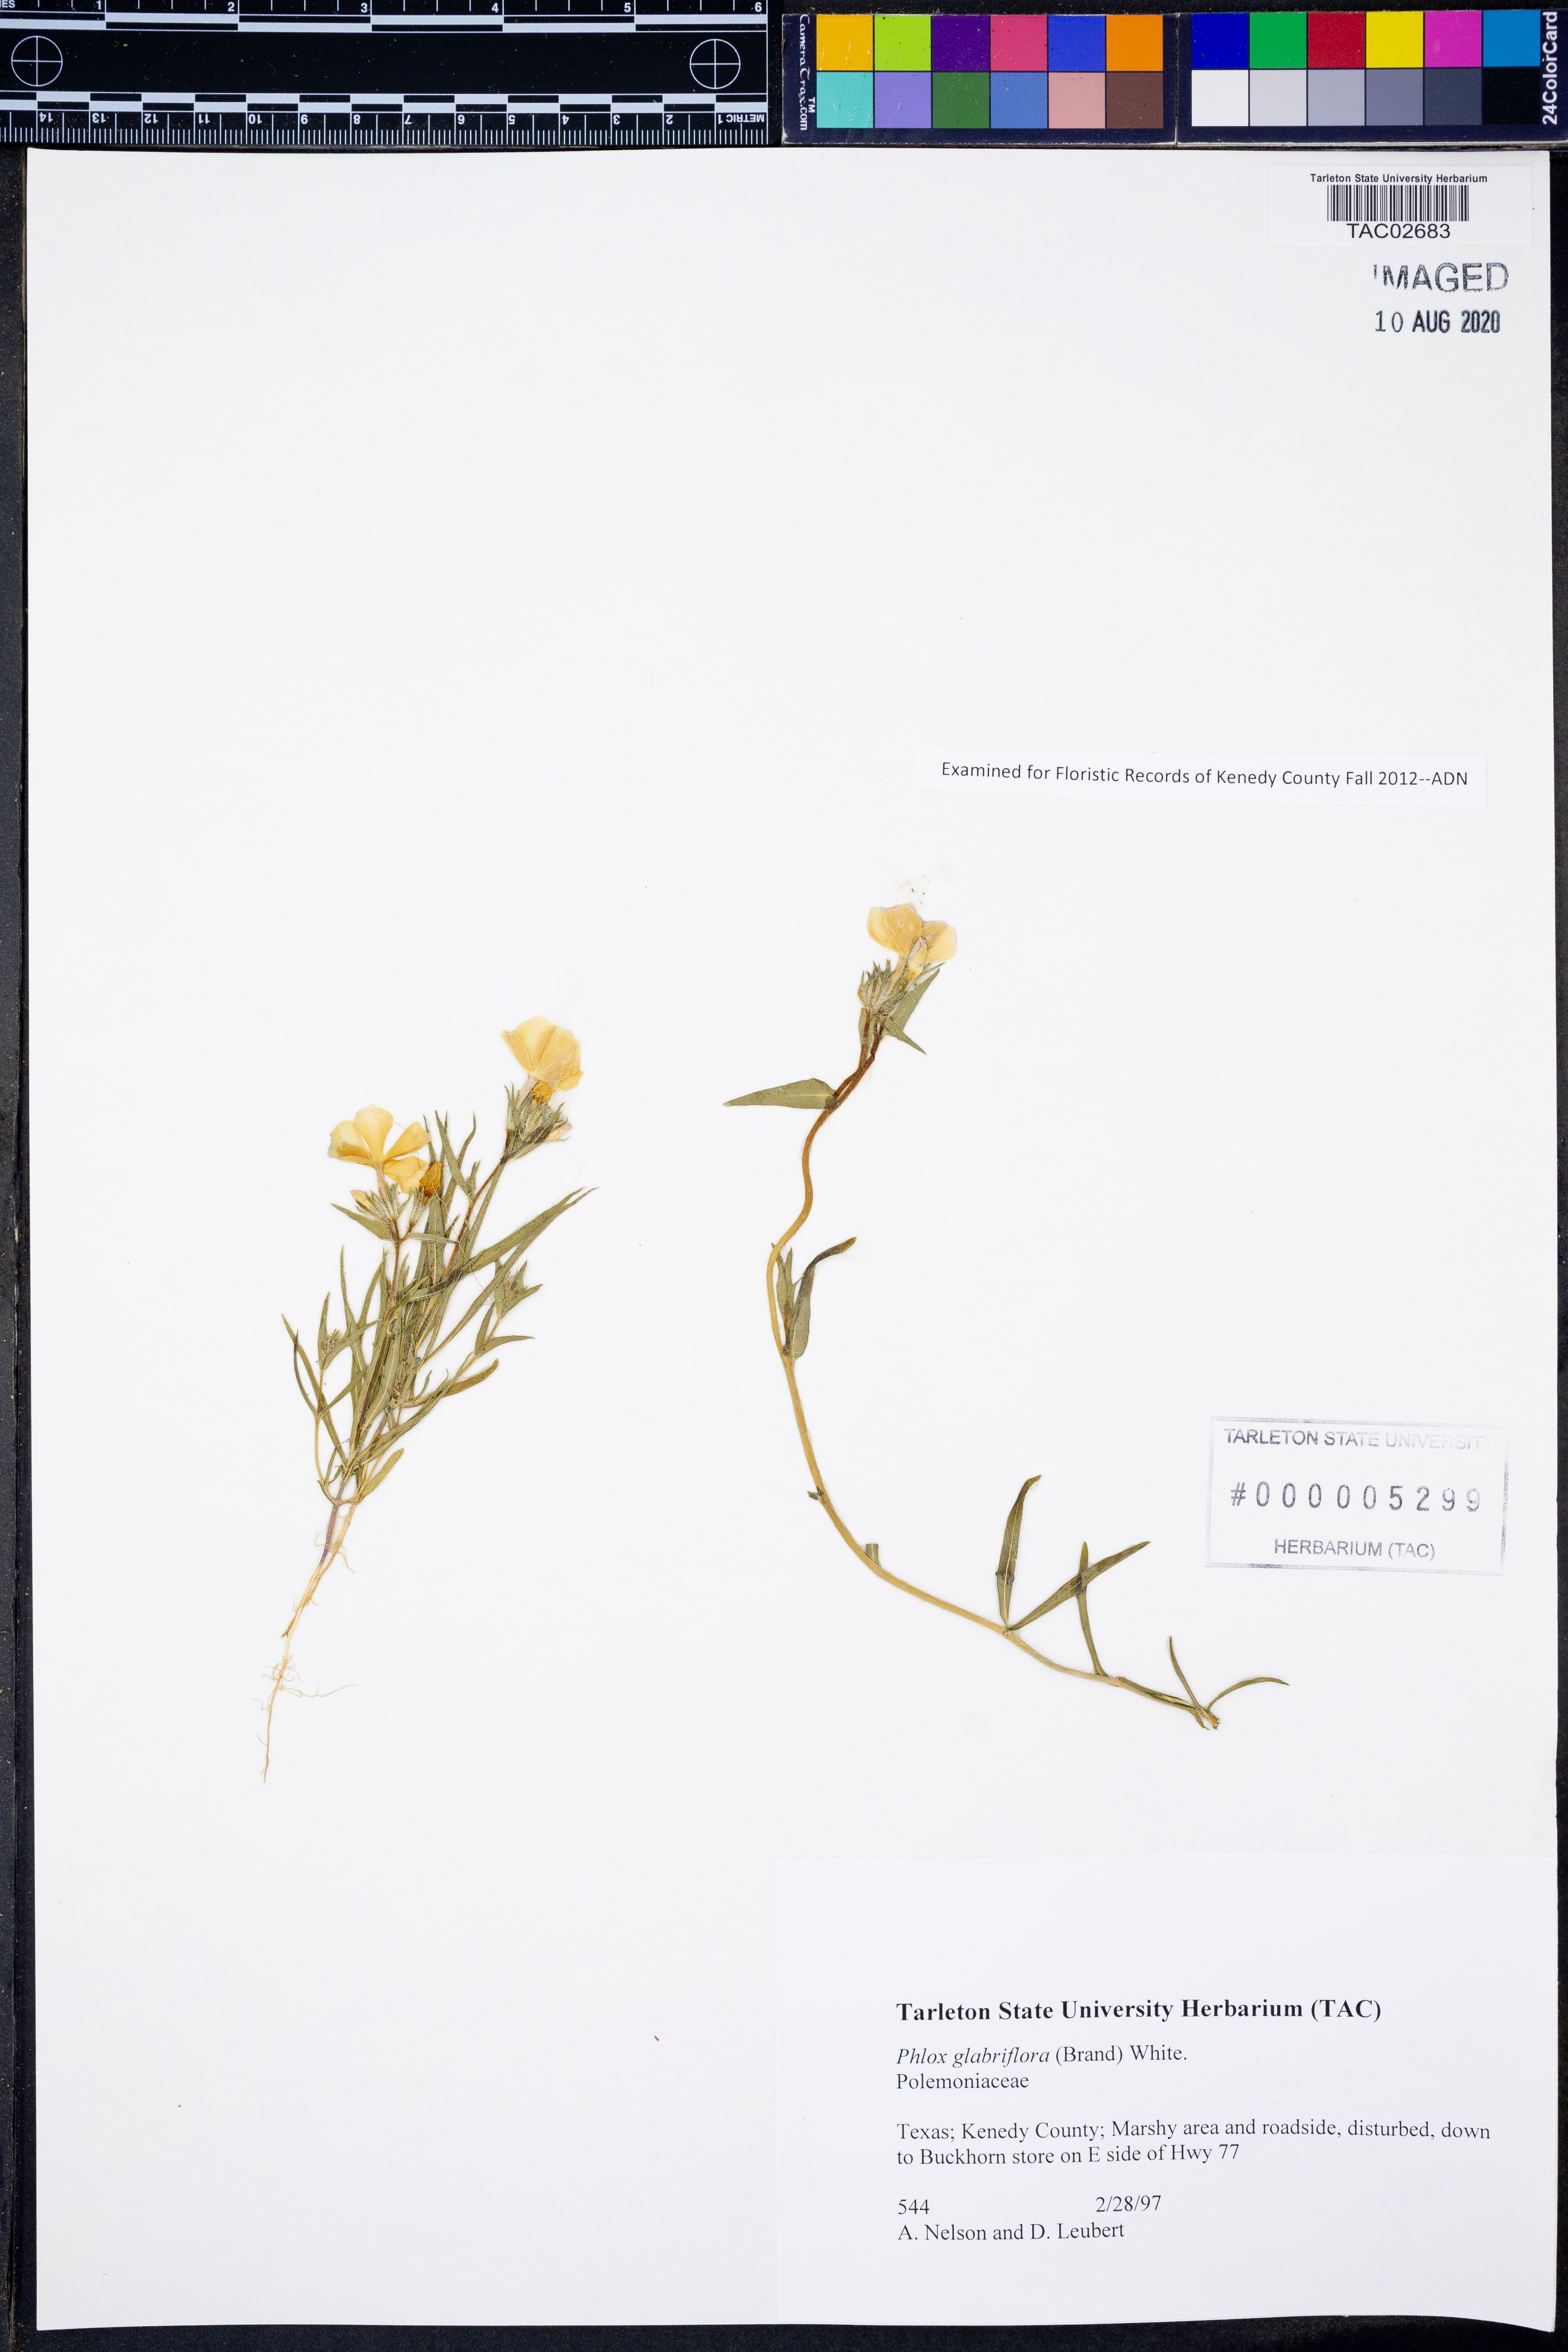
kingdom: Plantae
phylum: Tracheophyta
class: Magnoliopsida
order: Ericales
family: Polemoniaceae
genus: Phlox
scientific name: Phlox glabriflora
